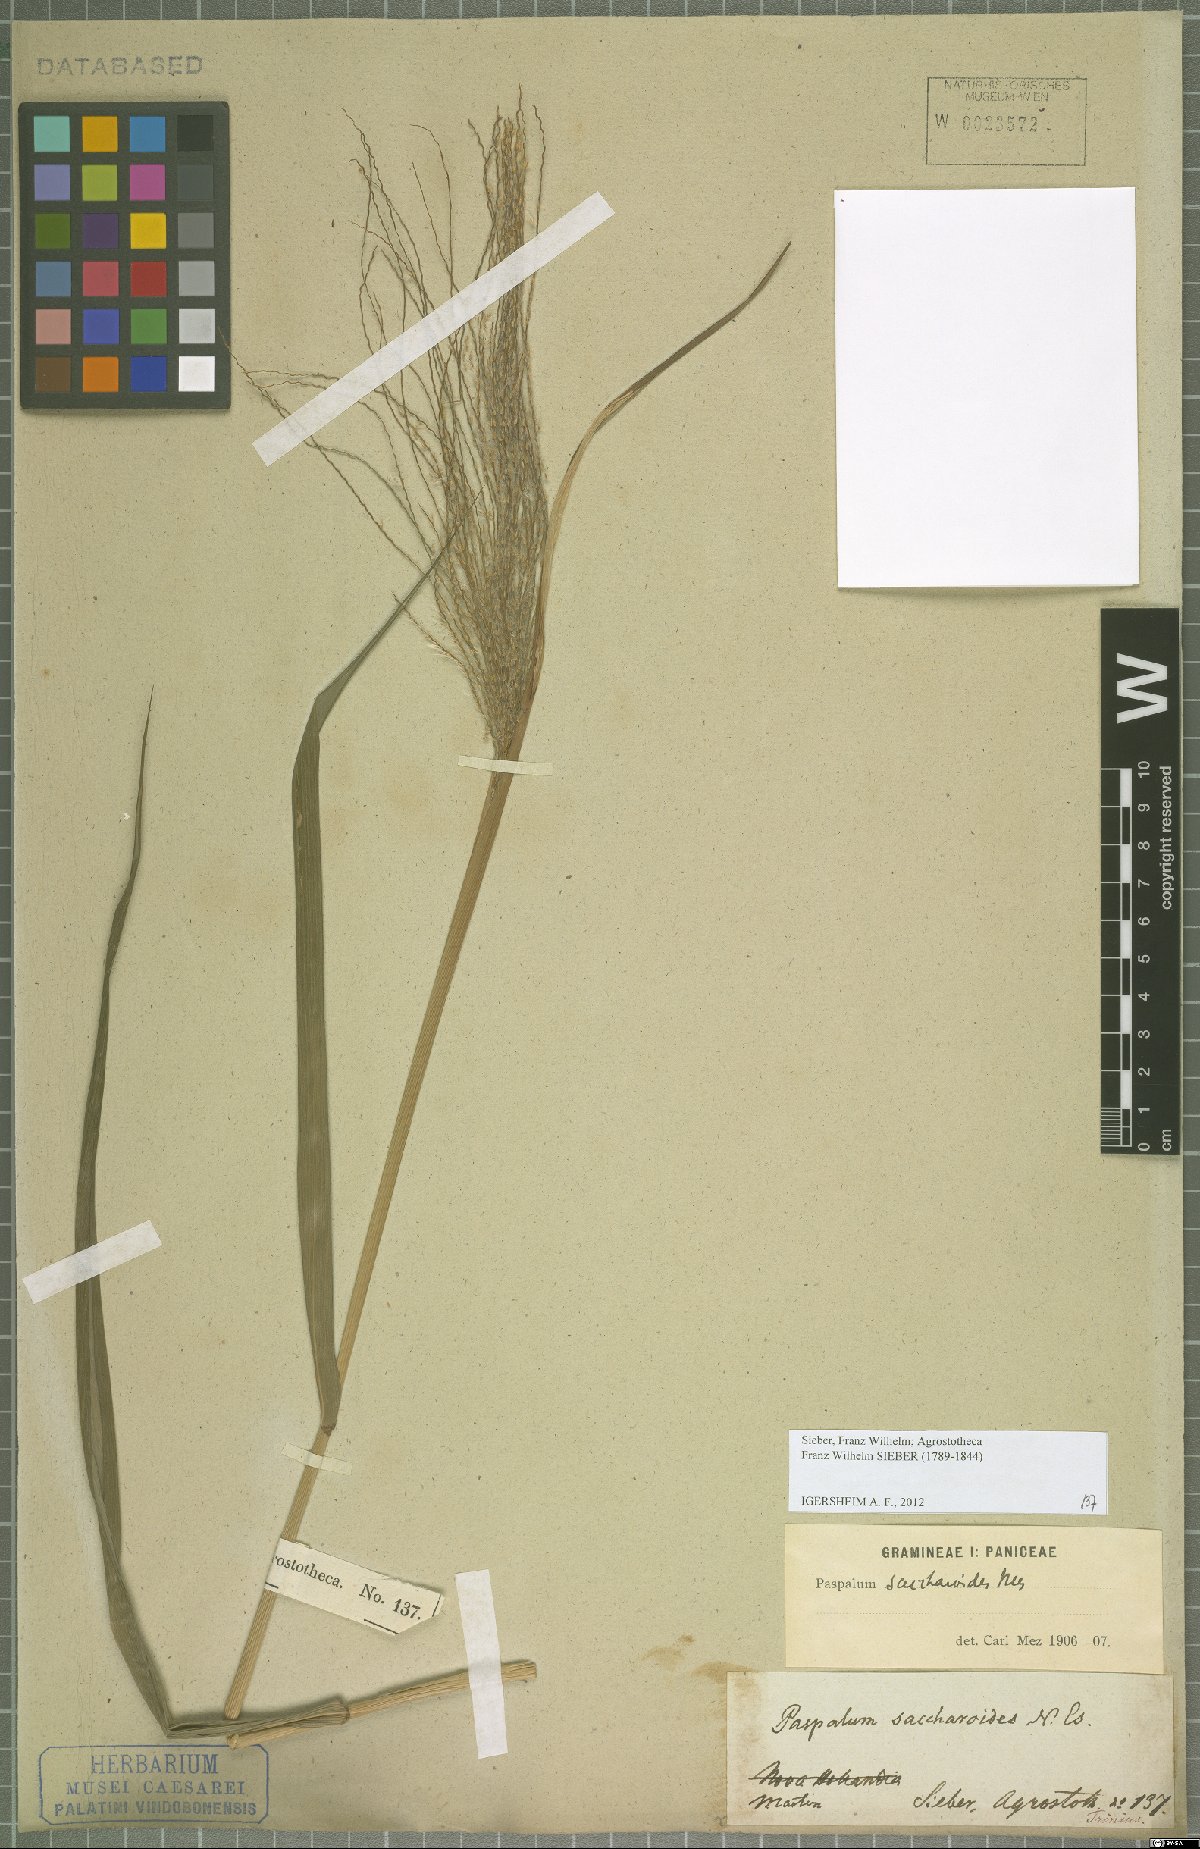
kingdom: Plantae
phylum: Tracheophyta
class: Liliopsida
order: Poales
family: Poaceae
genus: Paspalum
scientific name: Paspalum saccharoides
